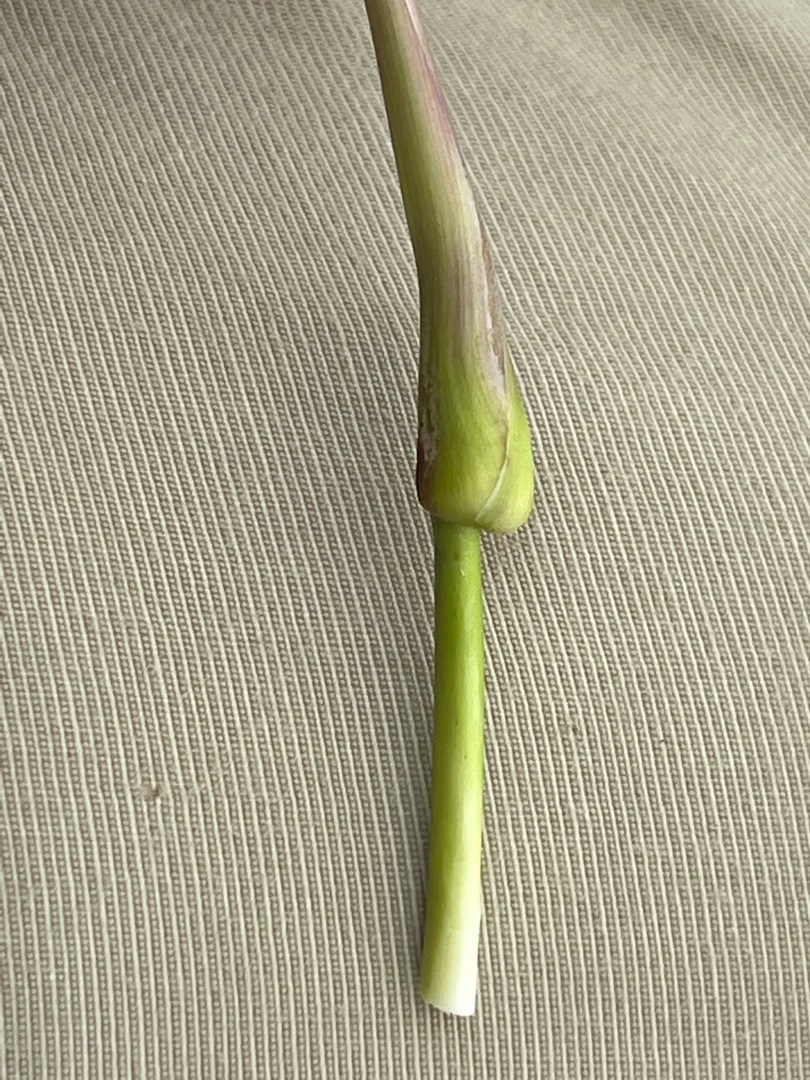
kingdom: Animalia
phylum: Arthropoda
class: Insecta
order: Diptera
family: Cecidomyiidae
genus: Mayetiola
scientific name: Mayetiola ventricolus
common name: Blåtopgalmyg
